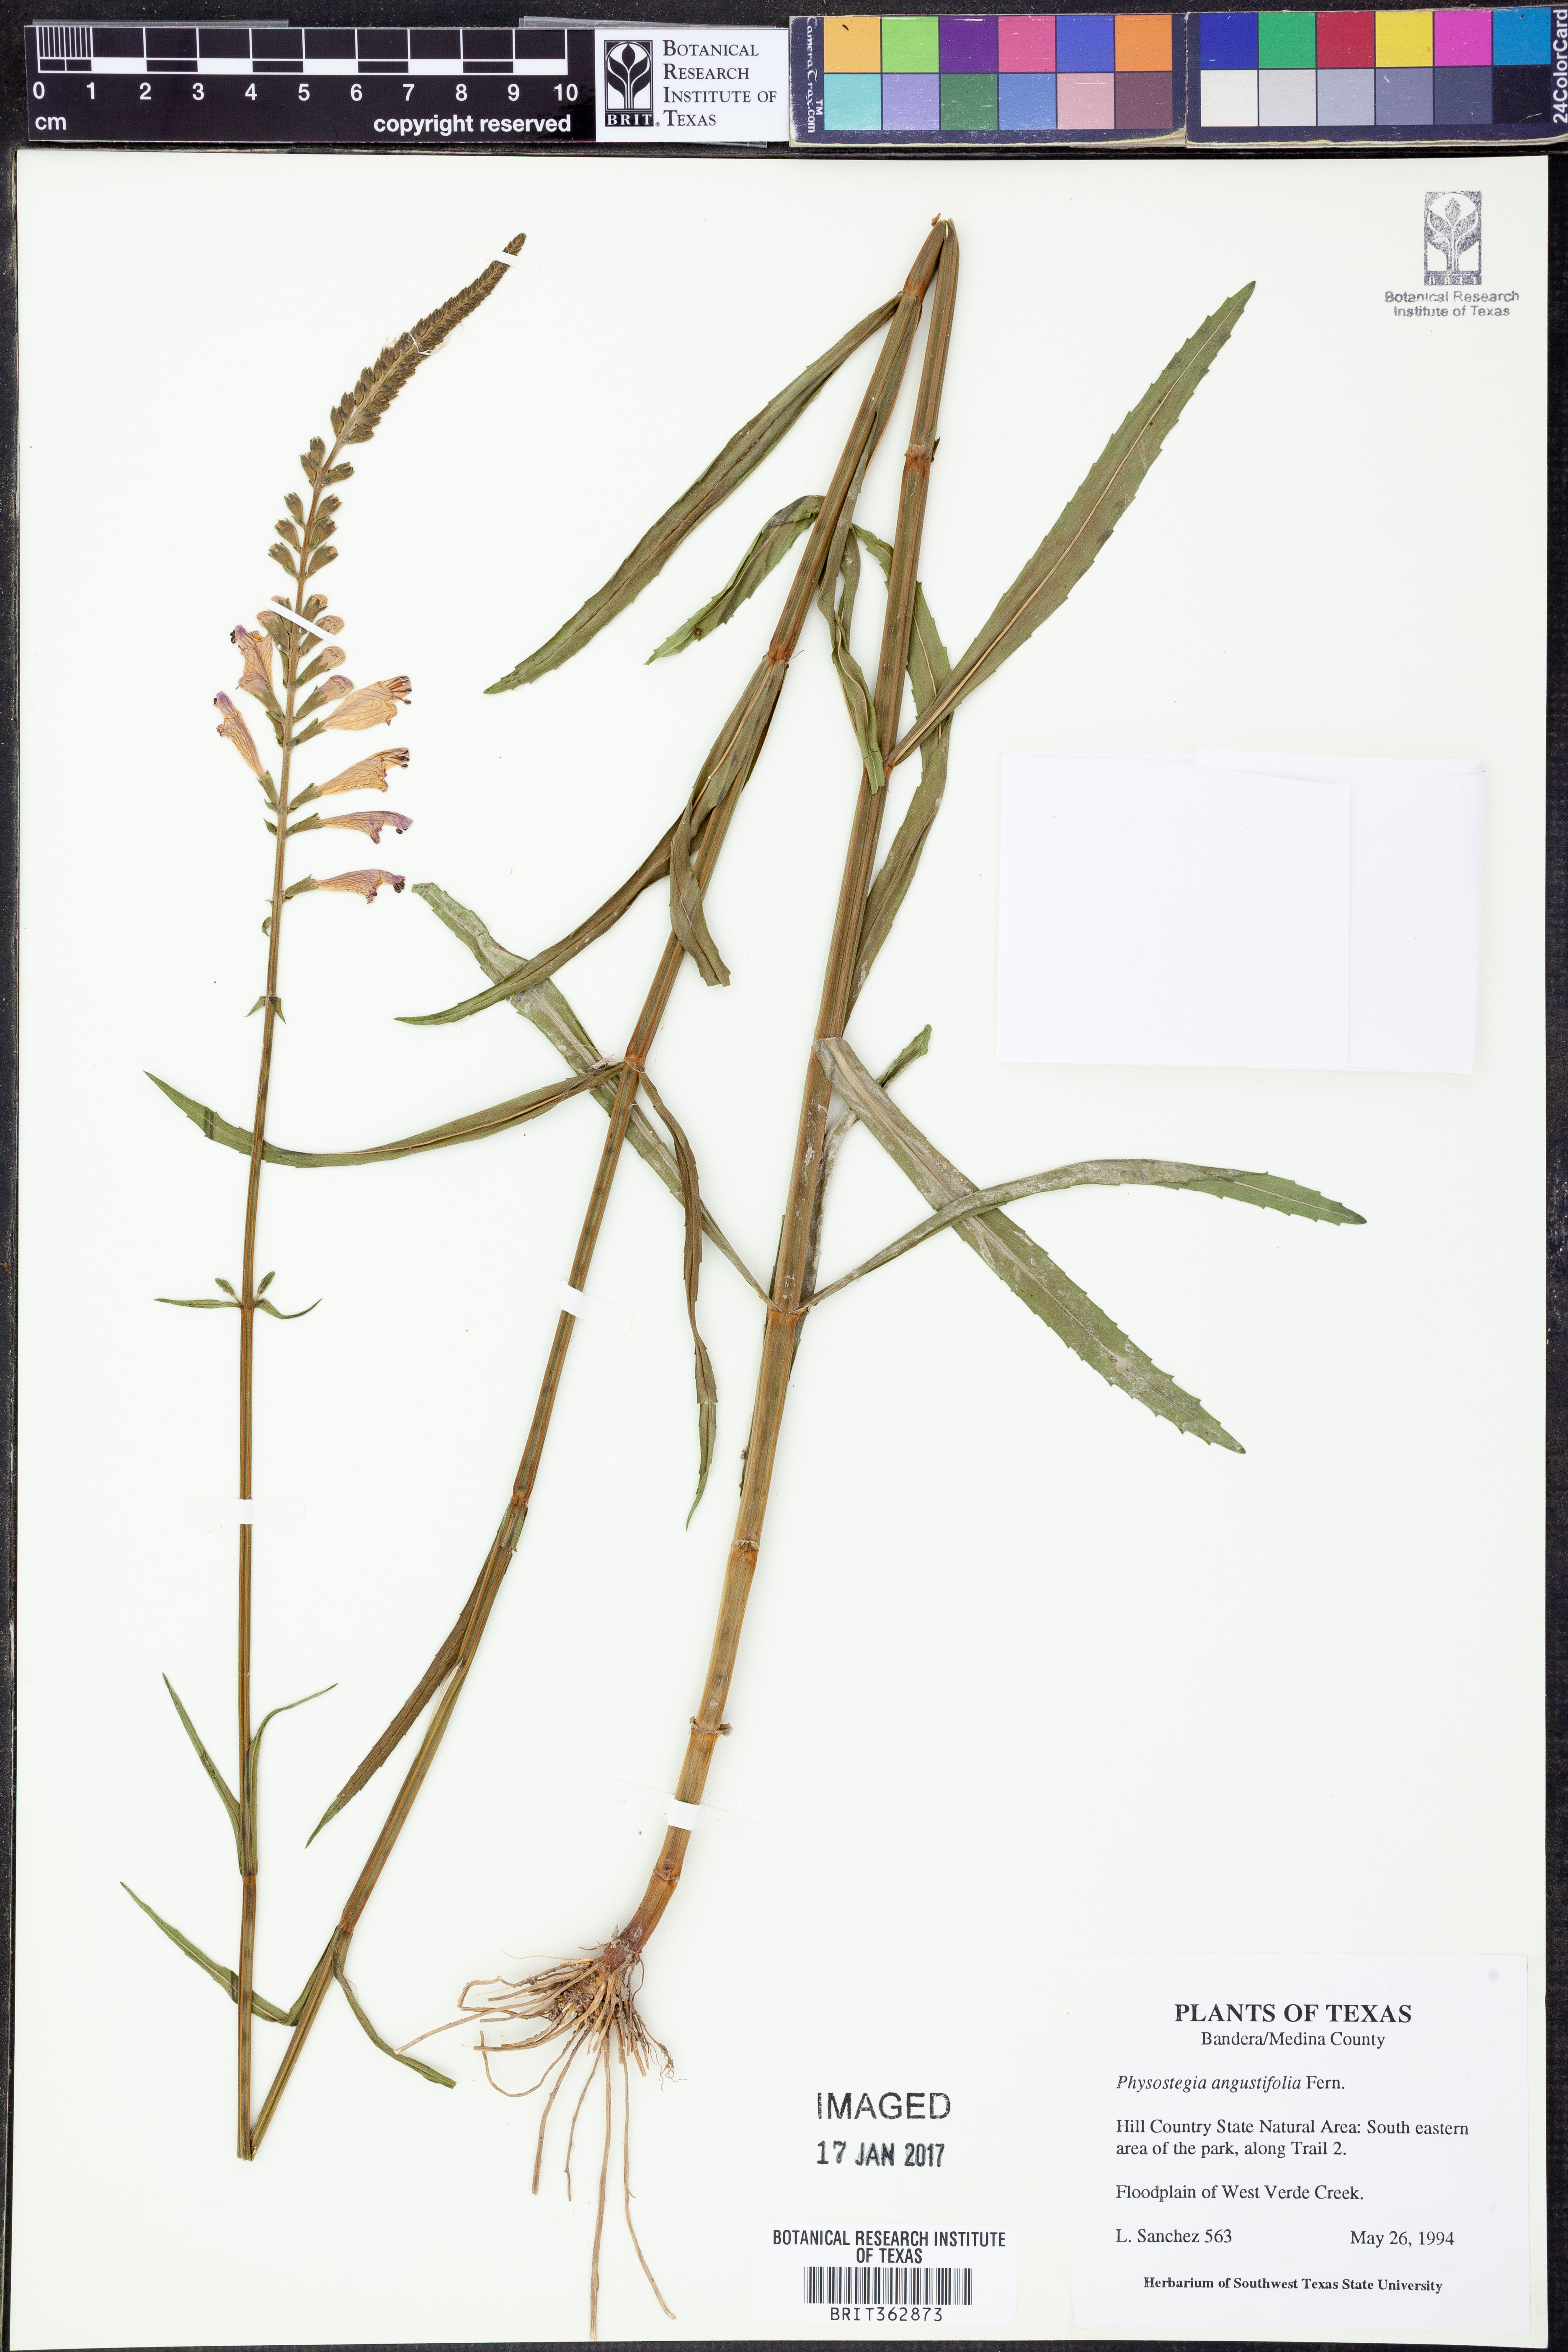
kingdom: Plantae
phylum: Tracheophyta
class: Magnoliopsida
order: Lamiales
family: Lamiaceae
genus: Physostegia
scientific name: Physostegia angustifolia
